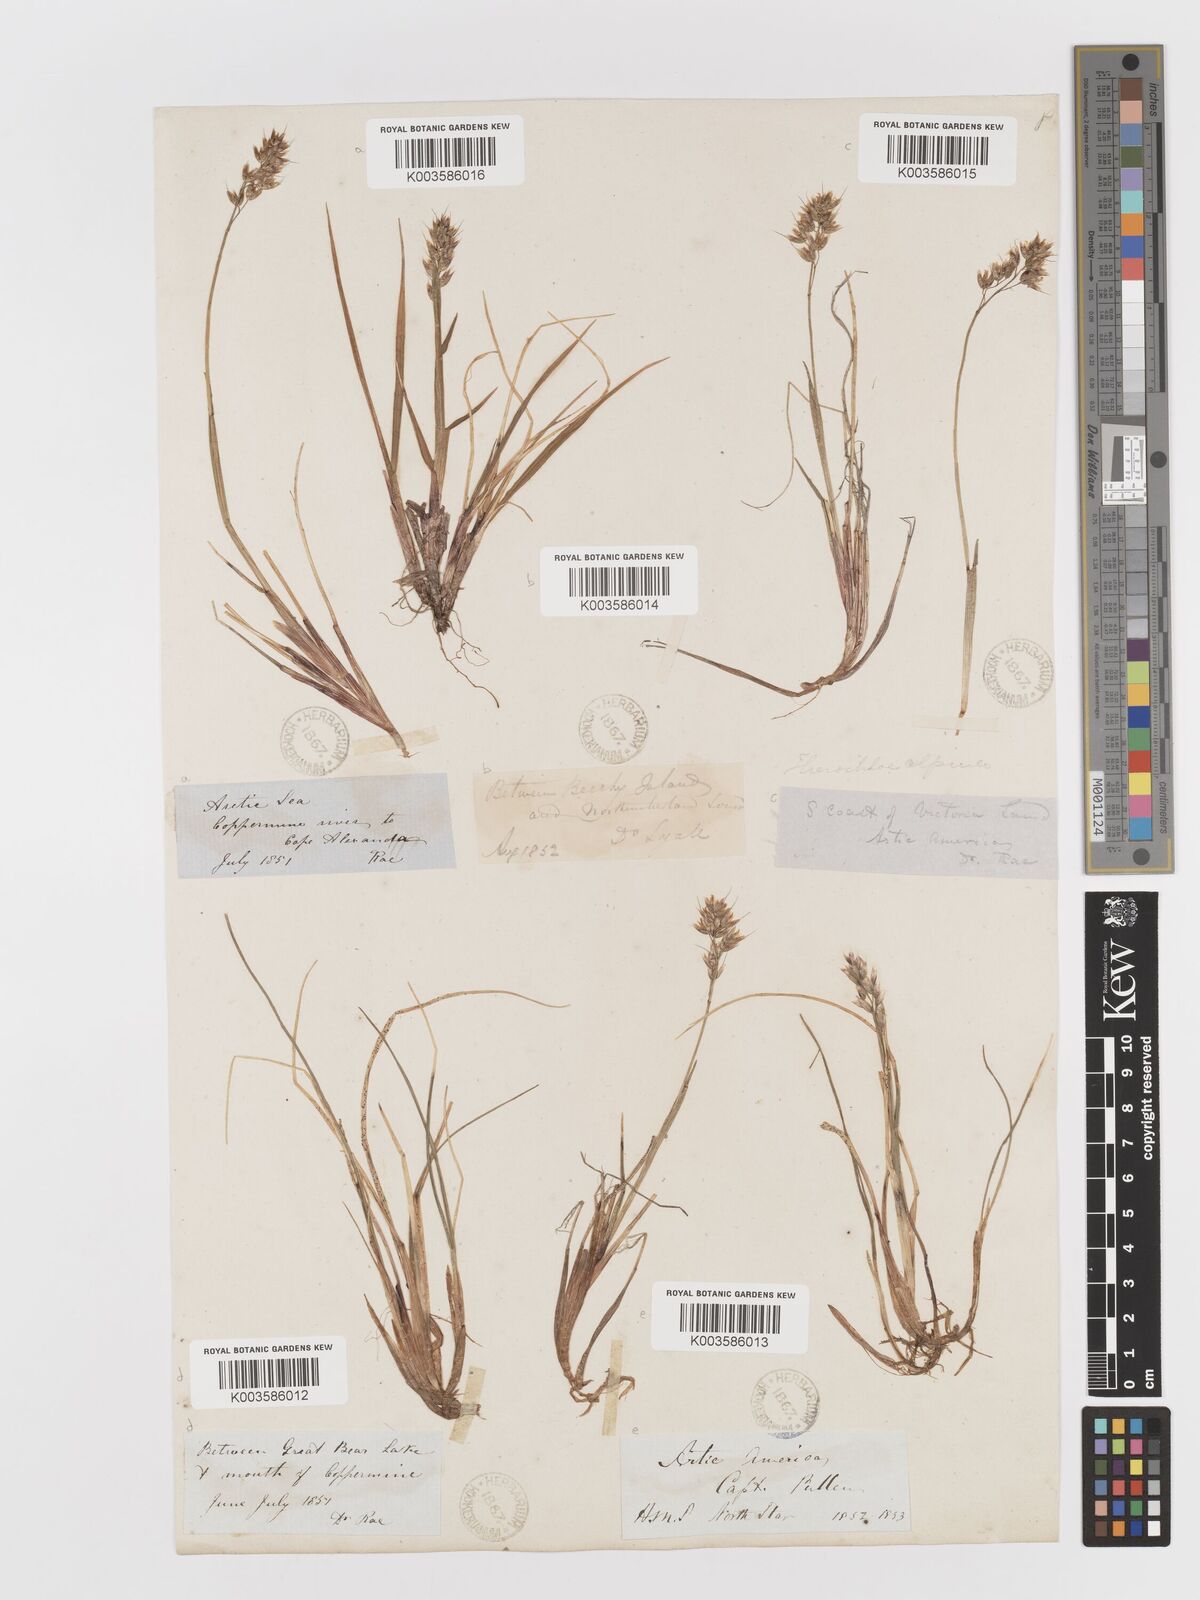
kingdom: Plantae
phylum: Tracheophyta
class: Liliopsida
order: Poales
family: Poaceae
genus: Anthoxanthum
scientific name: Anthoxanthum monticola
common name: Alpine sweetgrass
